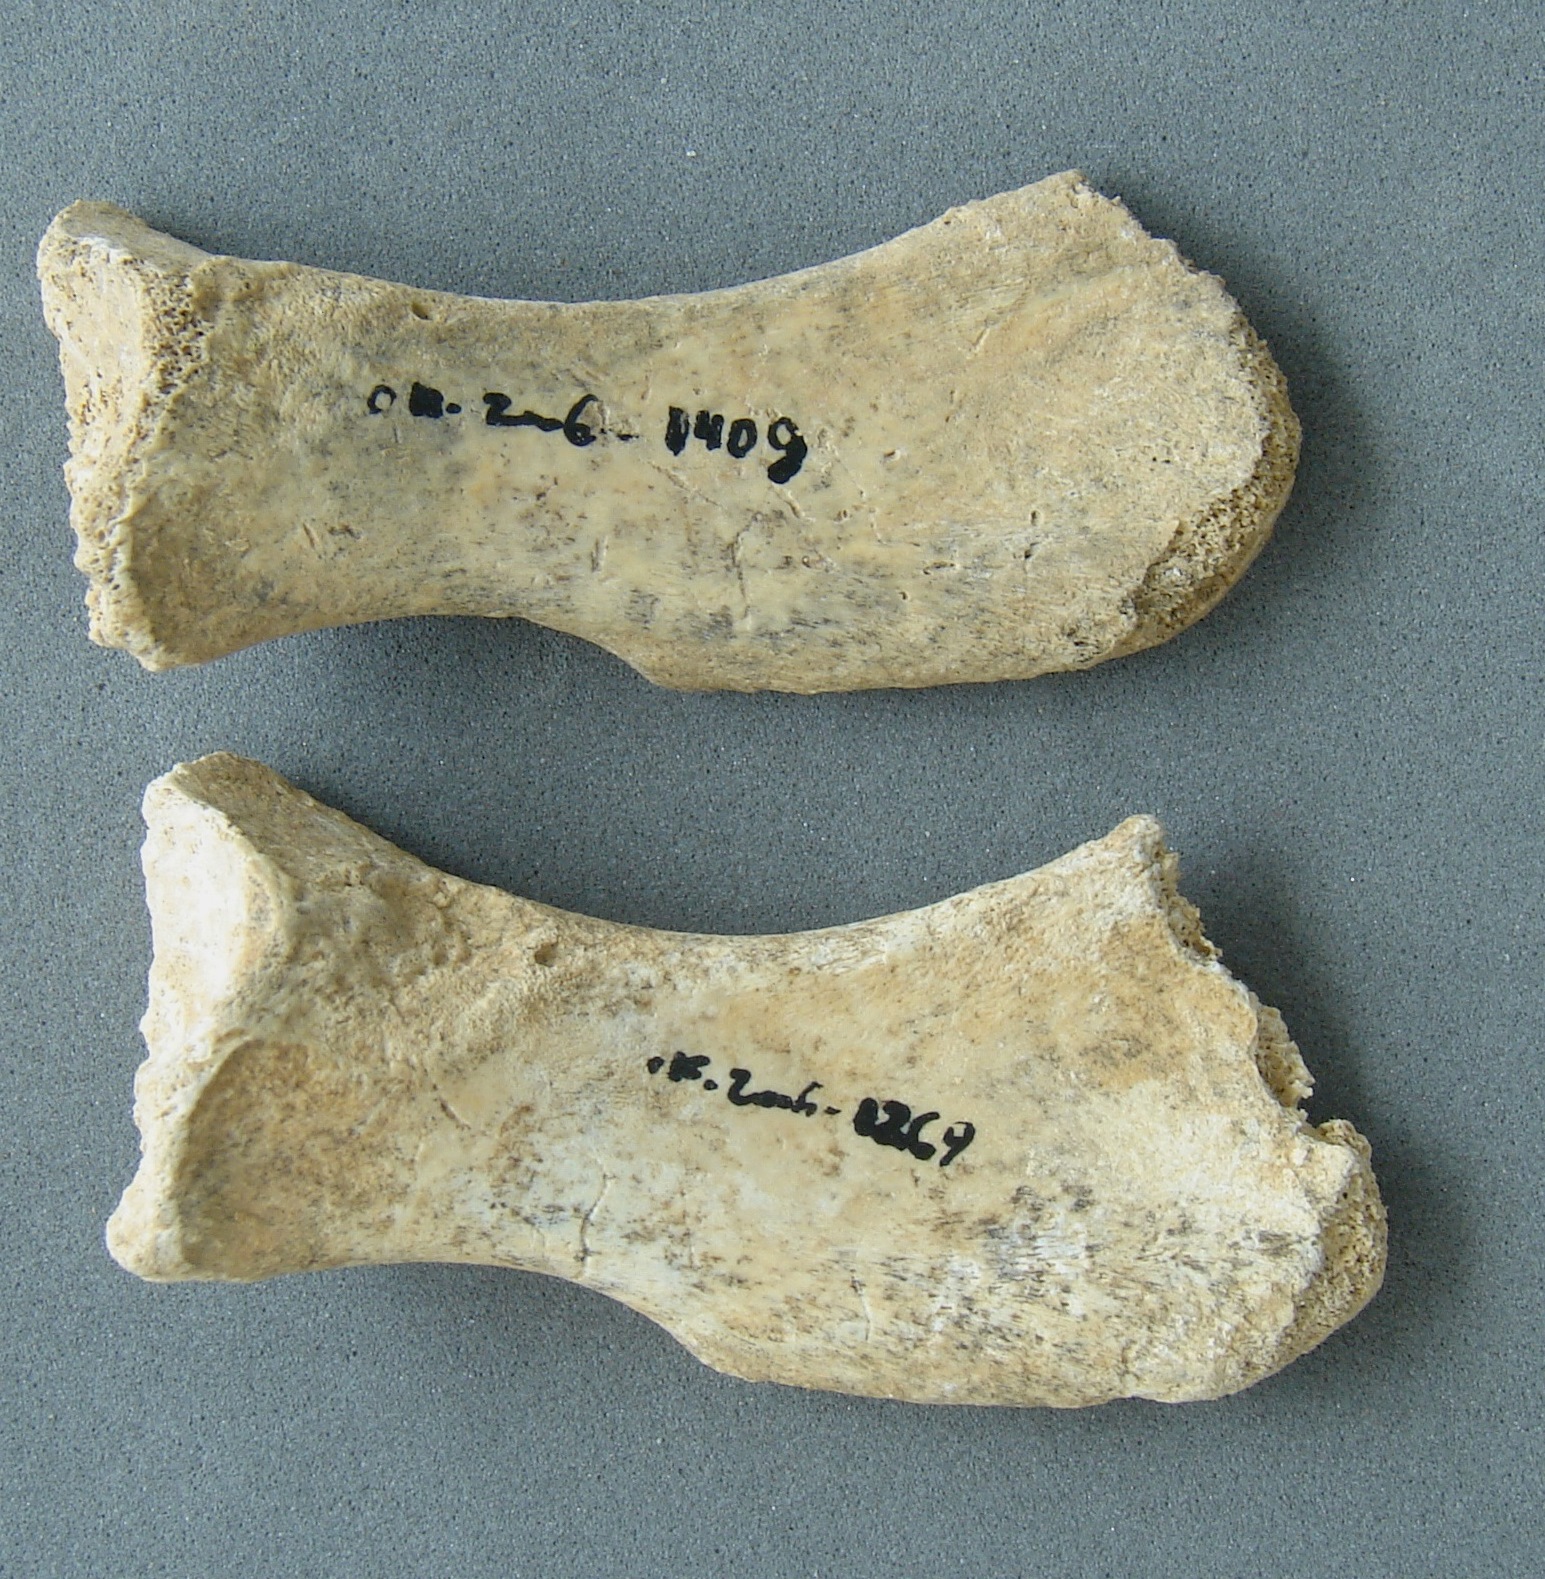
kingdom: Animalia
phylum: Chordata
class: Mammalia
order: Carnivora
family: Felidae
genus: Felis
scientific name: Felis silvestris
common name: Wildcat
